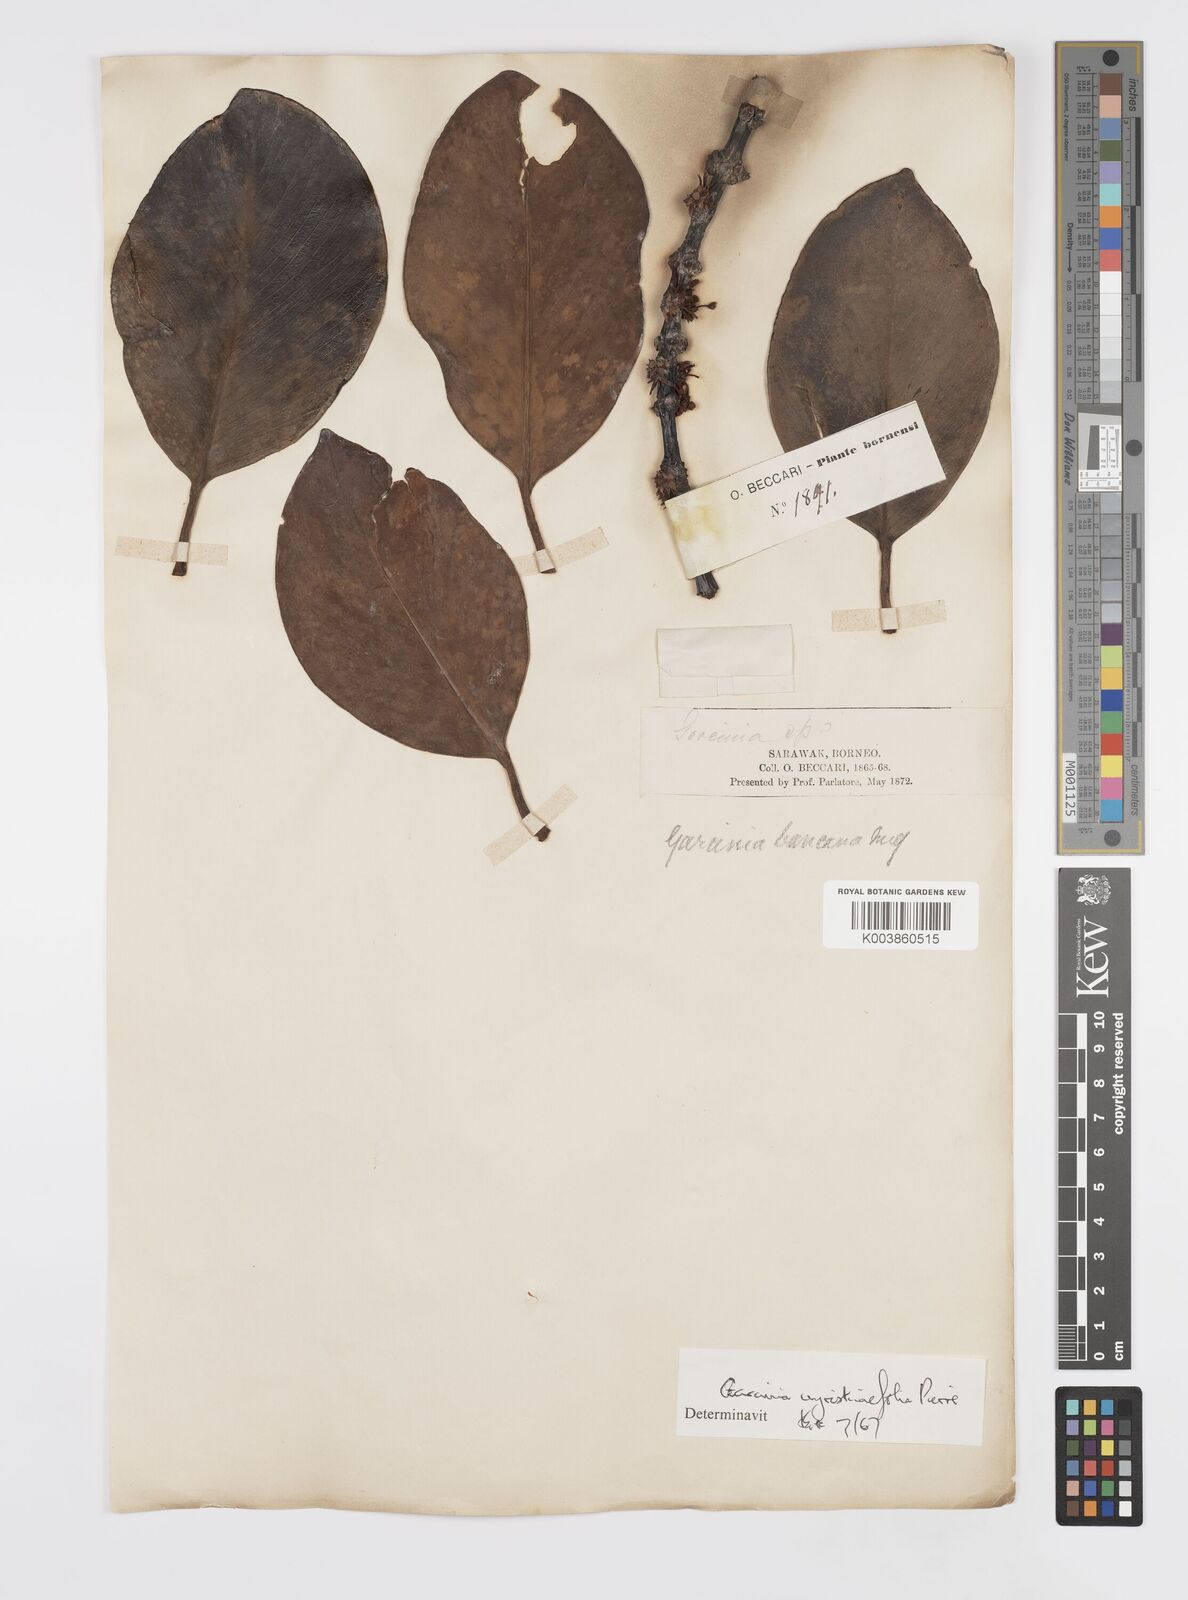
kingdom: Plantae
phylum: Tracheophyta
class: Magnoliopsida
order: Malpighiales
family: Clusiaceae
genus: Garcinia
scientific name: Garcinia myristicifolia
